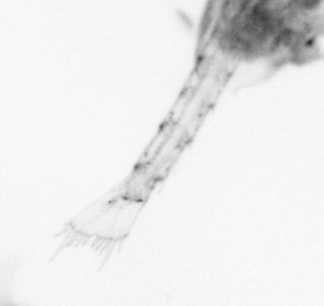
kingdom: Animalia
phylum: Arthropoda
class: Copepoda
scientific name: Copepoda
